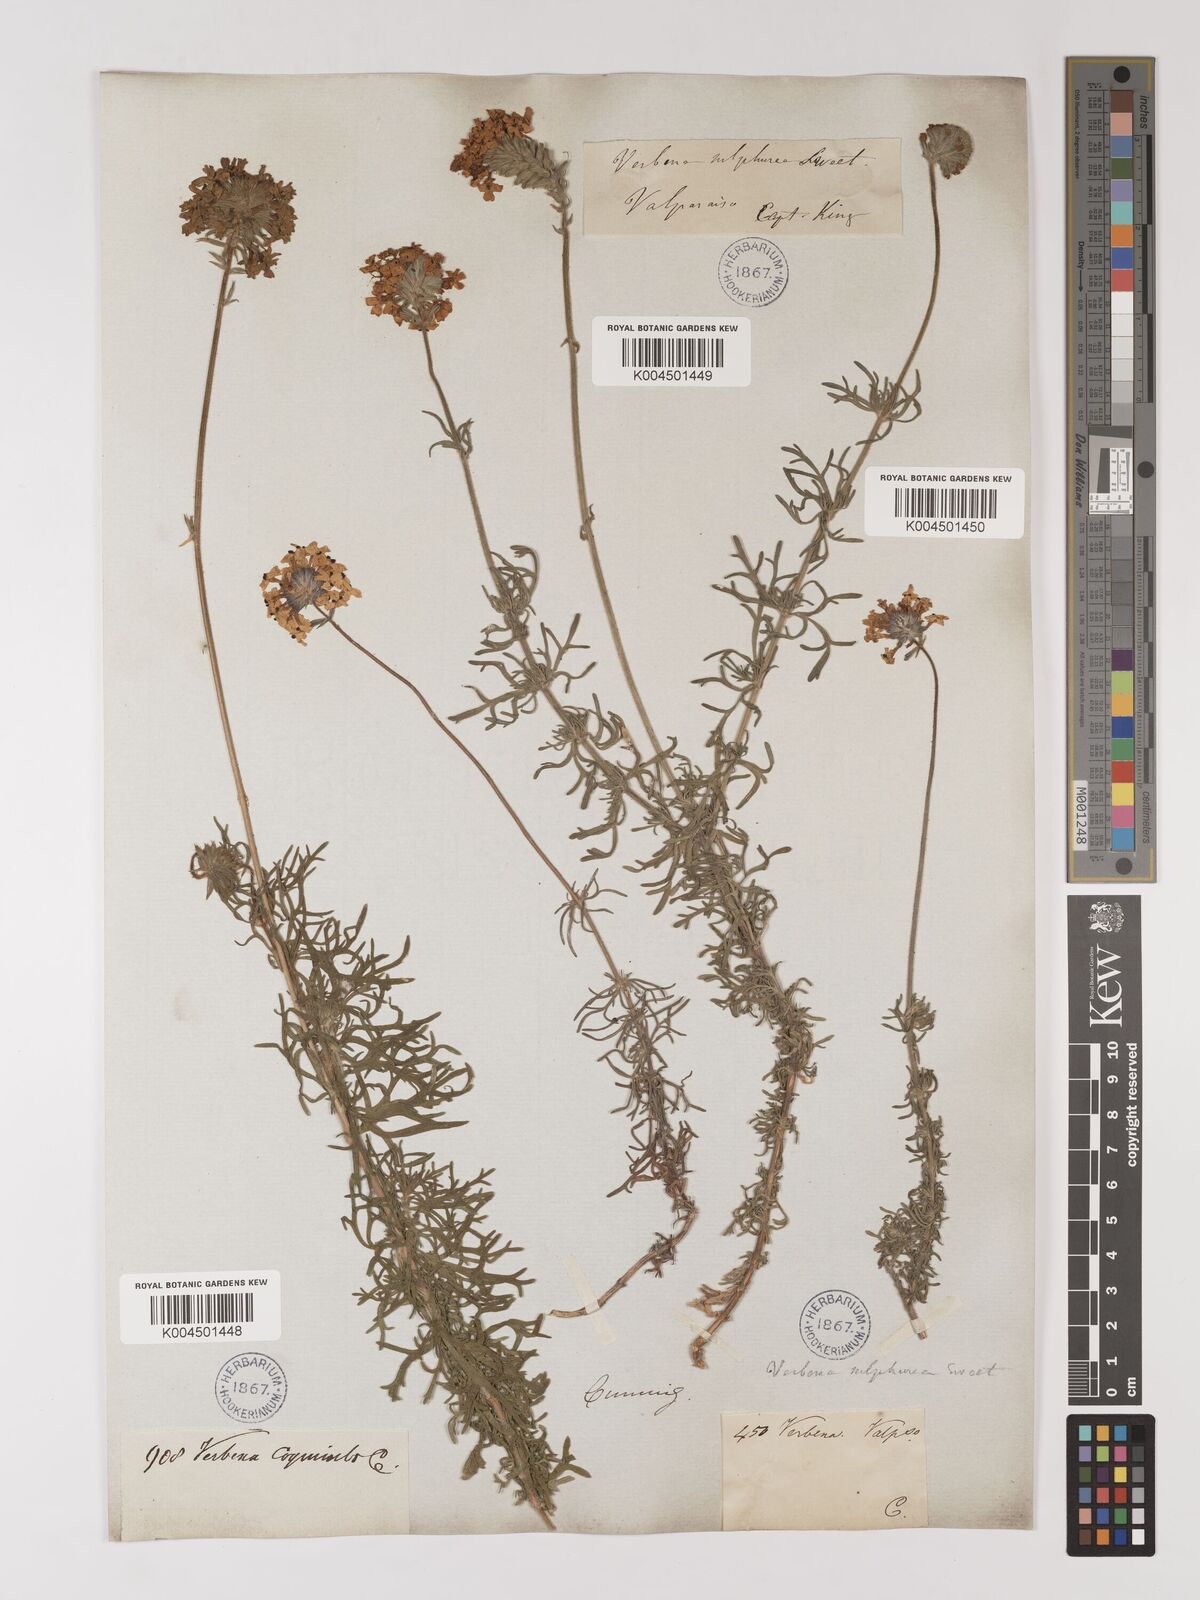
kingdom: Plantae
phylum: Tracheophyta
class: Magnoliopsida
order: Lamiales
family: Verbenaceae
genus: Verbena
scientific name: Verbena sulphurea
